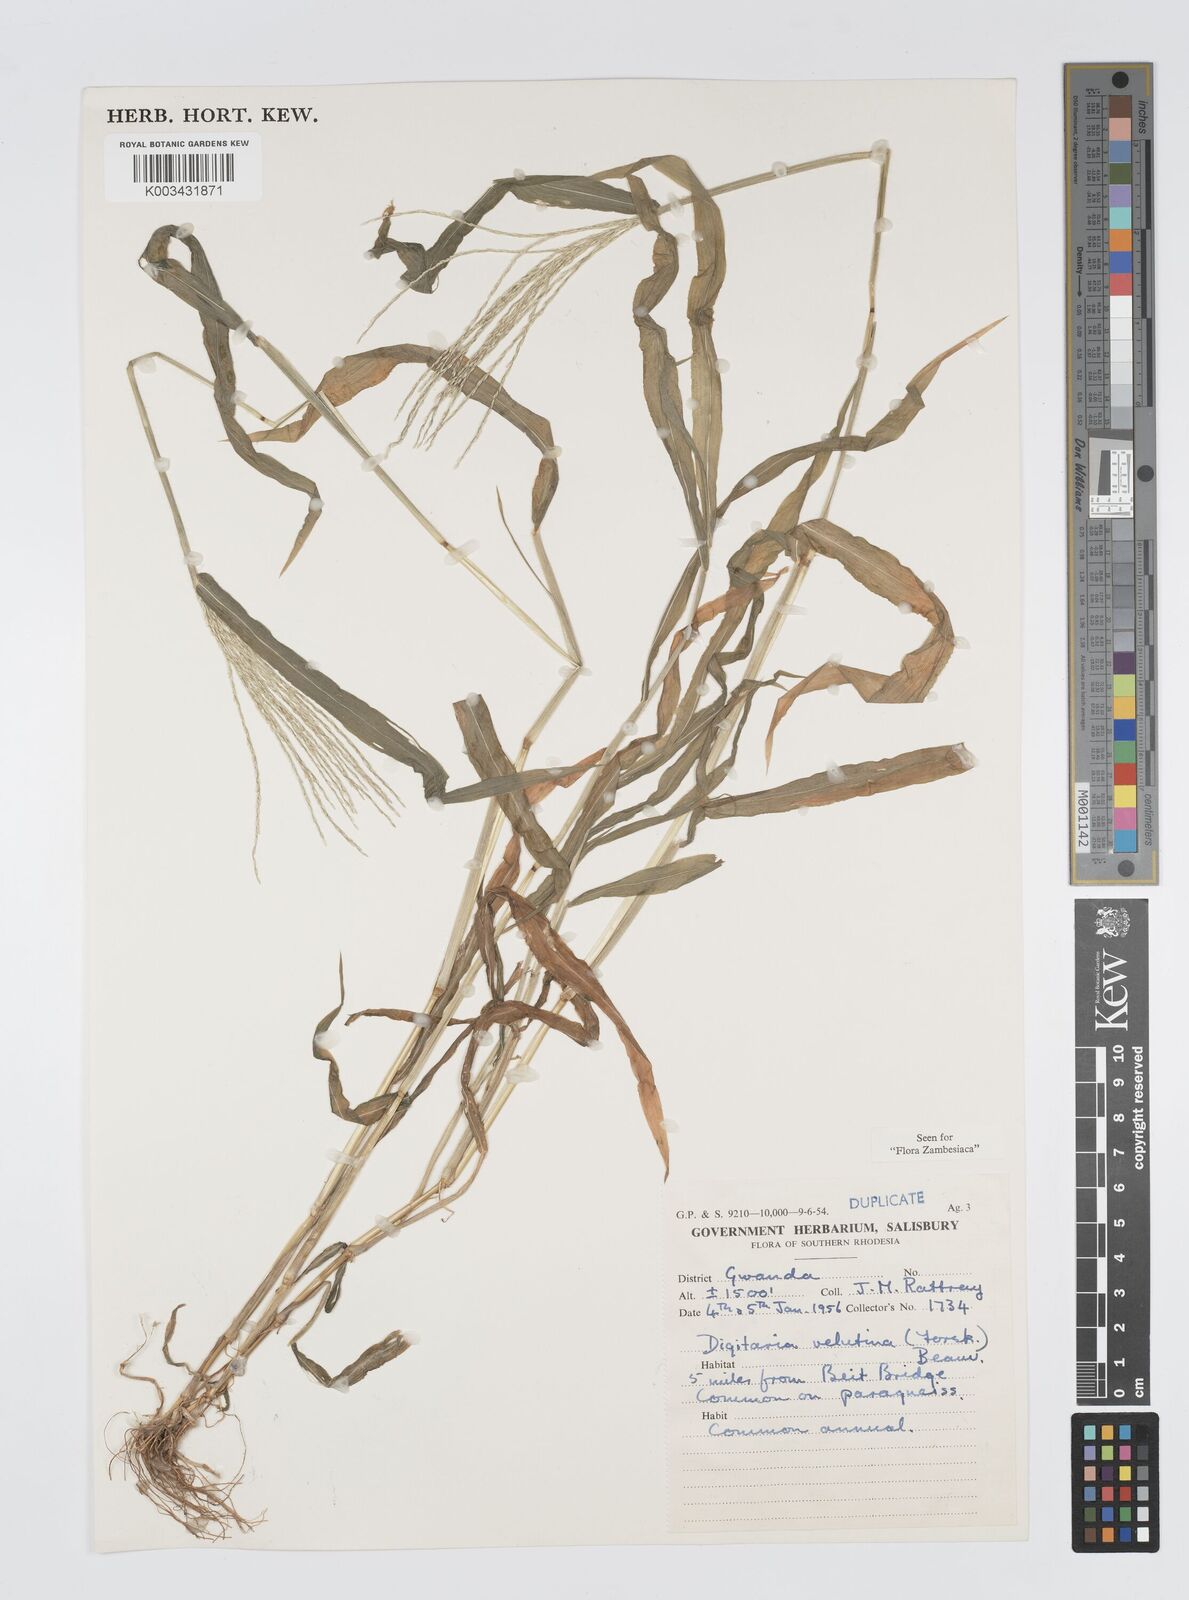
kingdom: Plantae
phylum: Tracheophyta
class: Liliopsida
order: Poales
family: Poaceae
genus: Digitaria
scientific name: Digitaria velutina
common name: Long-plume finger grass
